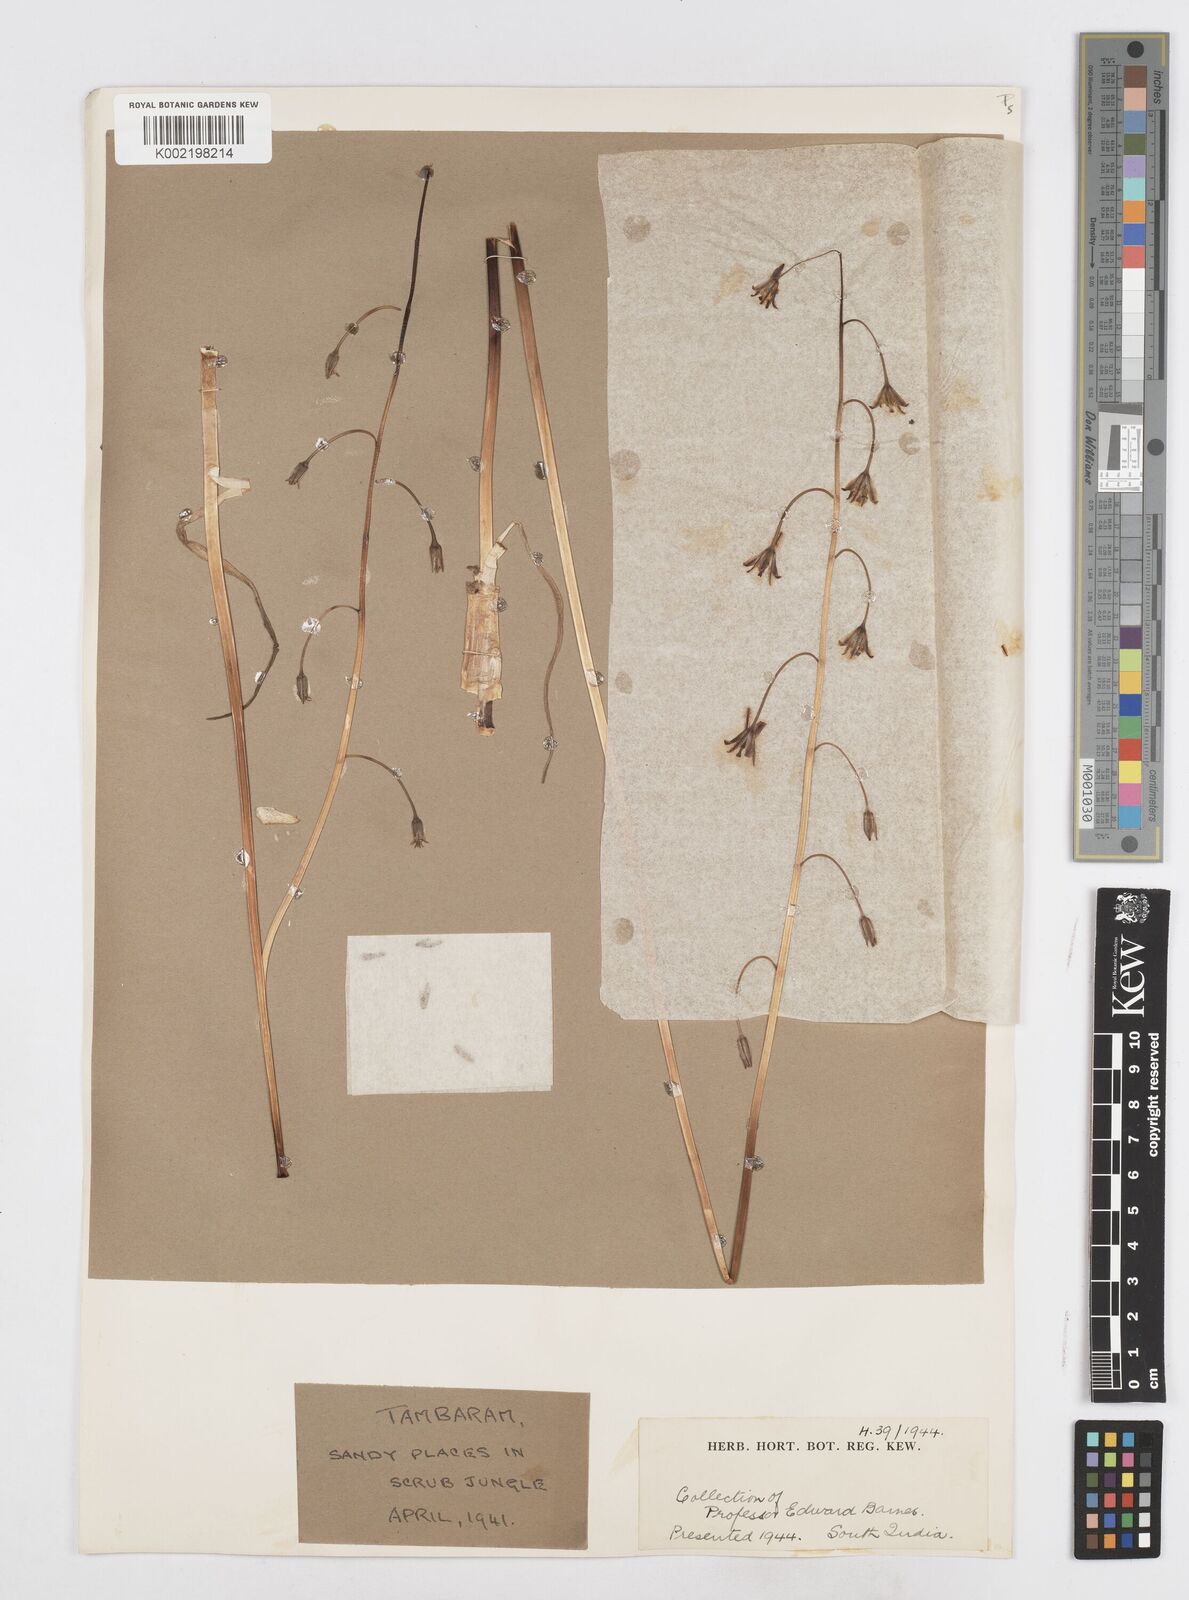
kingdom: Plantae
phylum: Tracheophyta
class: Liliopsida
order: Asparagales
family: Asparagaceae
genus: Drimia
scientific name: Drimia indica
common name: Indian-squill
